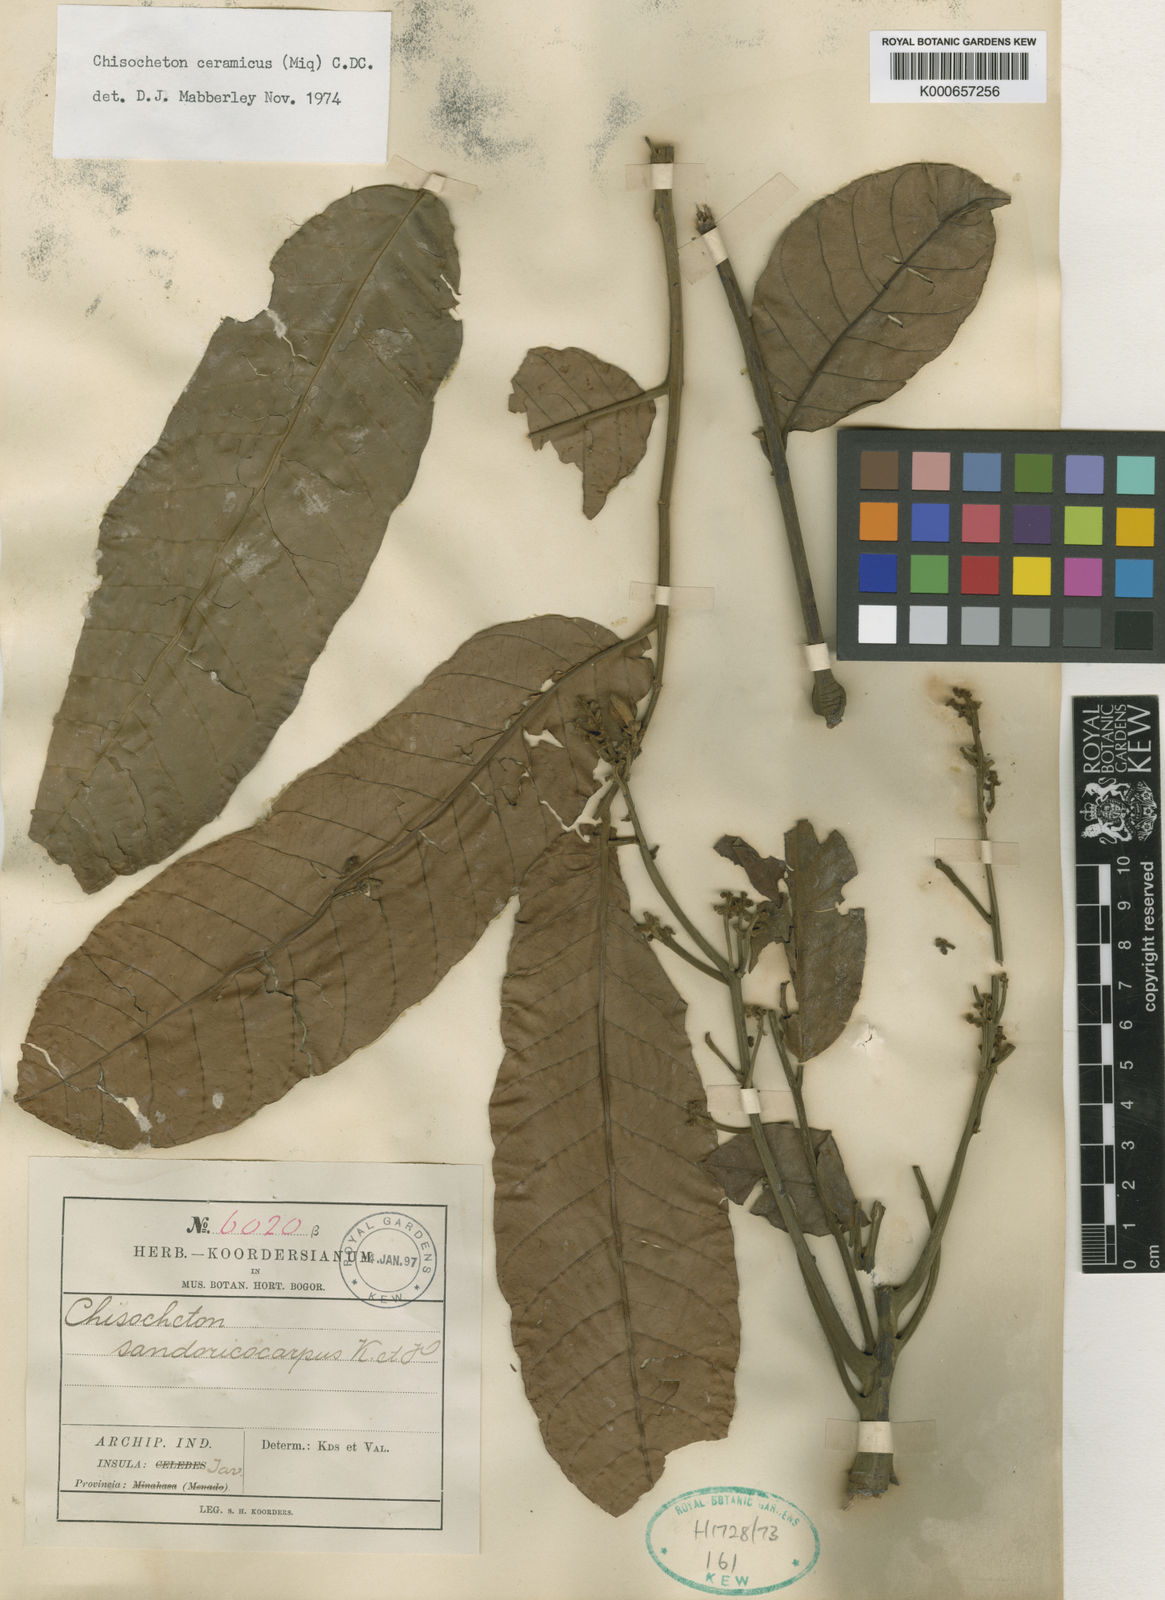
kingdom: Plantae
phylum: Tracheophyta
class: Magnoliopsida
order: Sapindales
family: Meliaceae
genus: Chisocheton
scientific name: Chisocheton ceramicus
